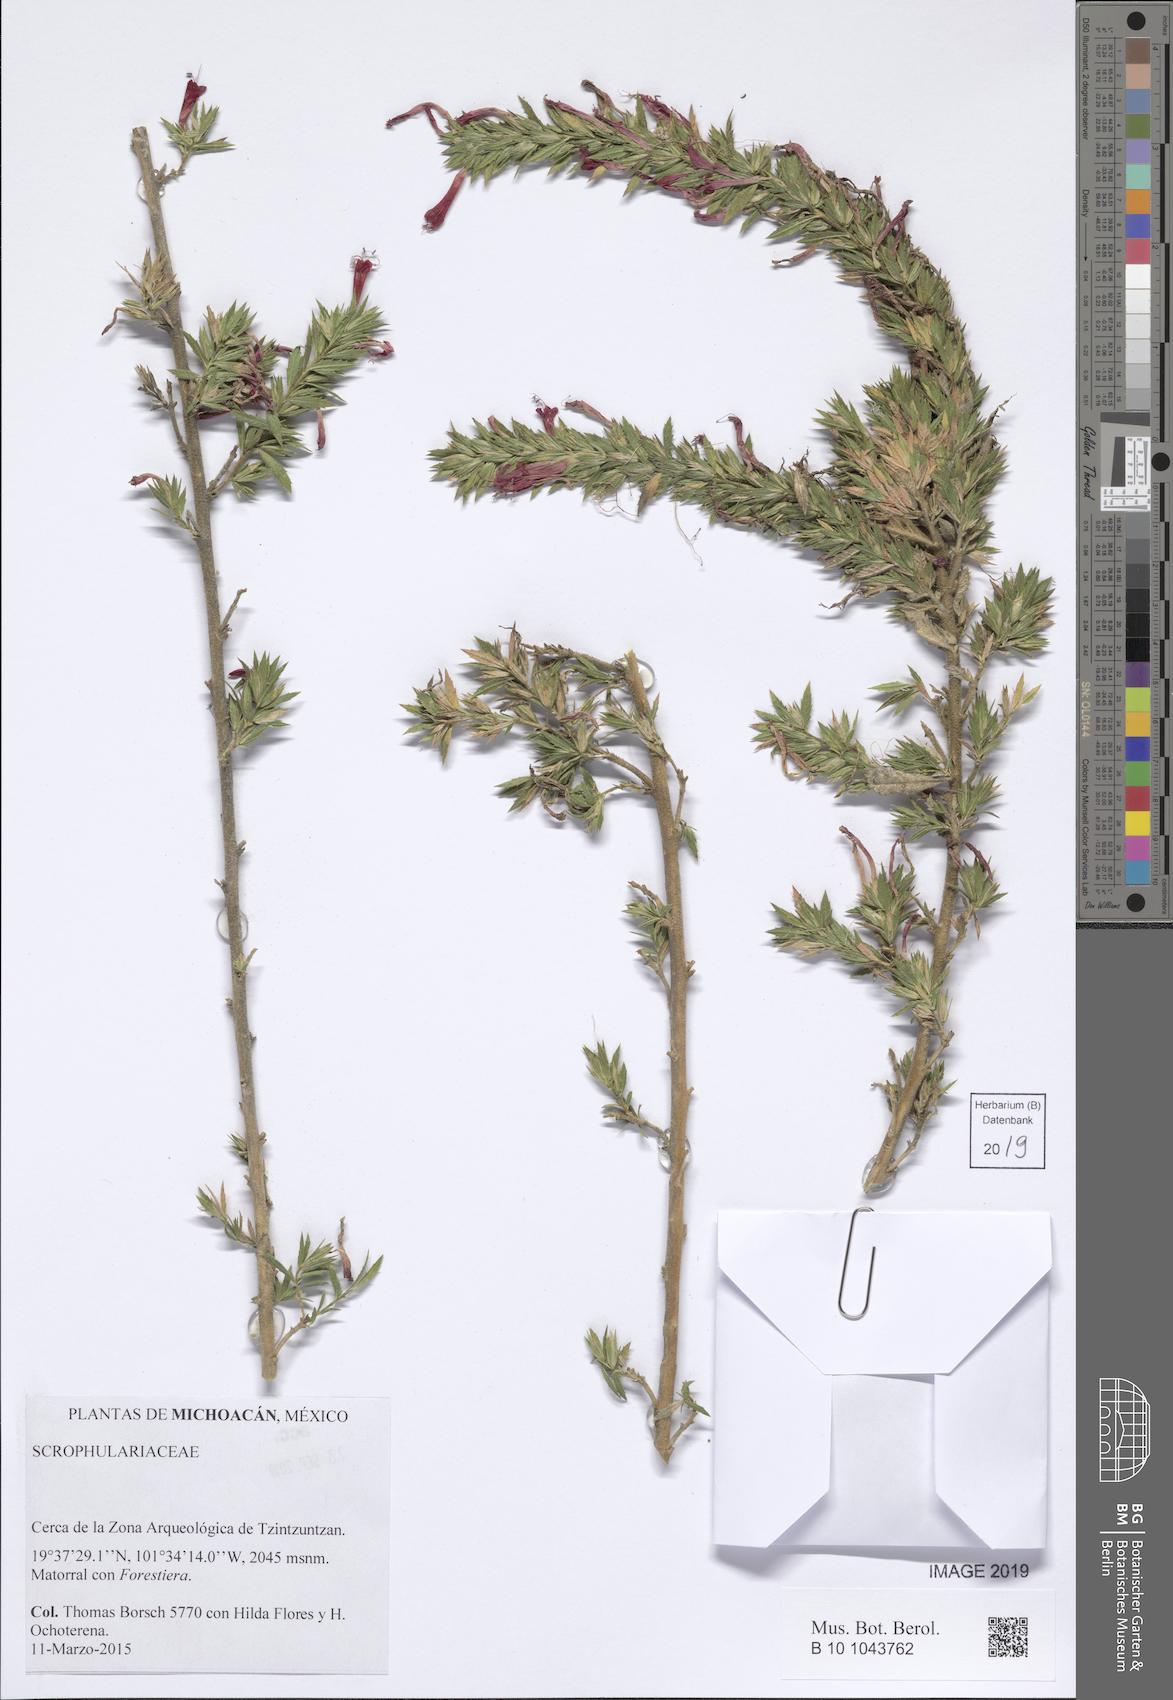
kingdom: Plantae
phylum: Tracheophyta
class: Magnoliopsida
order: Lamiales
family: Scrophulariaceae
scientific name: Scrophulariaceae
